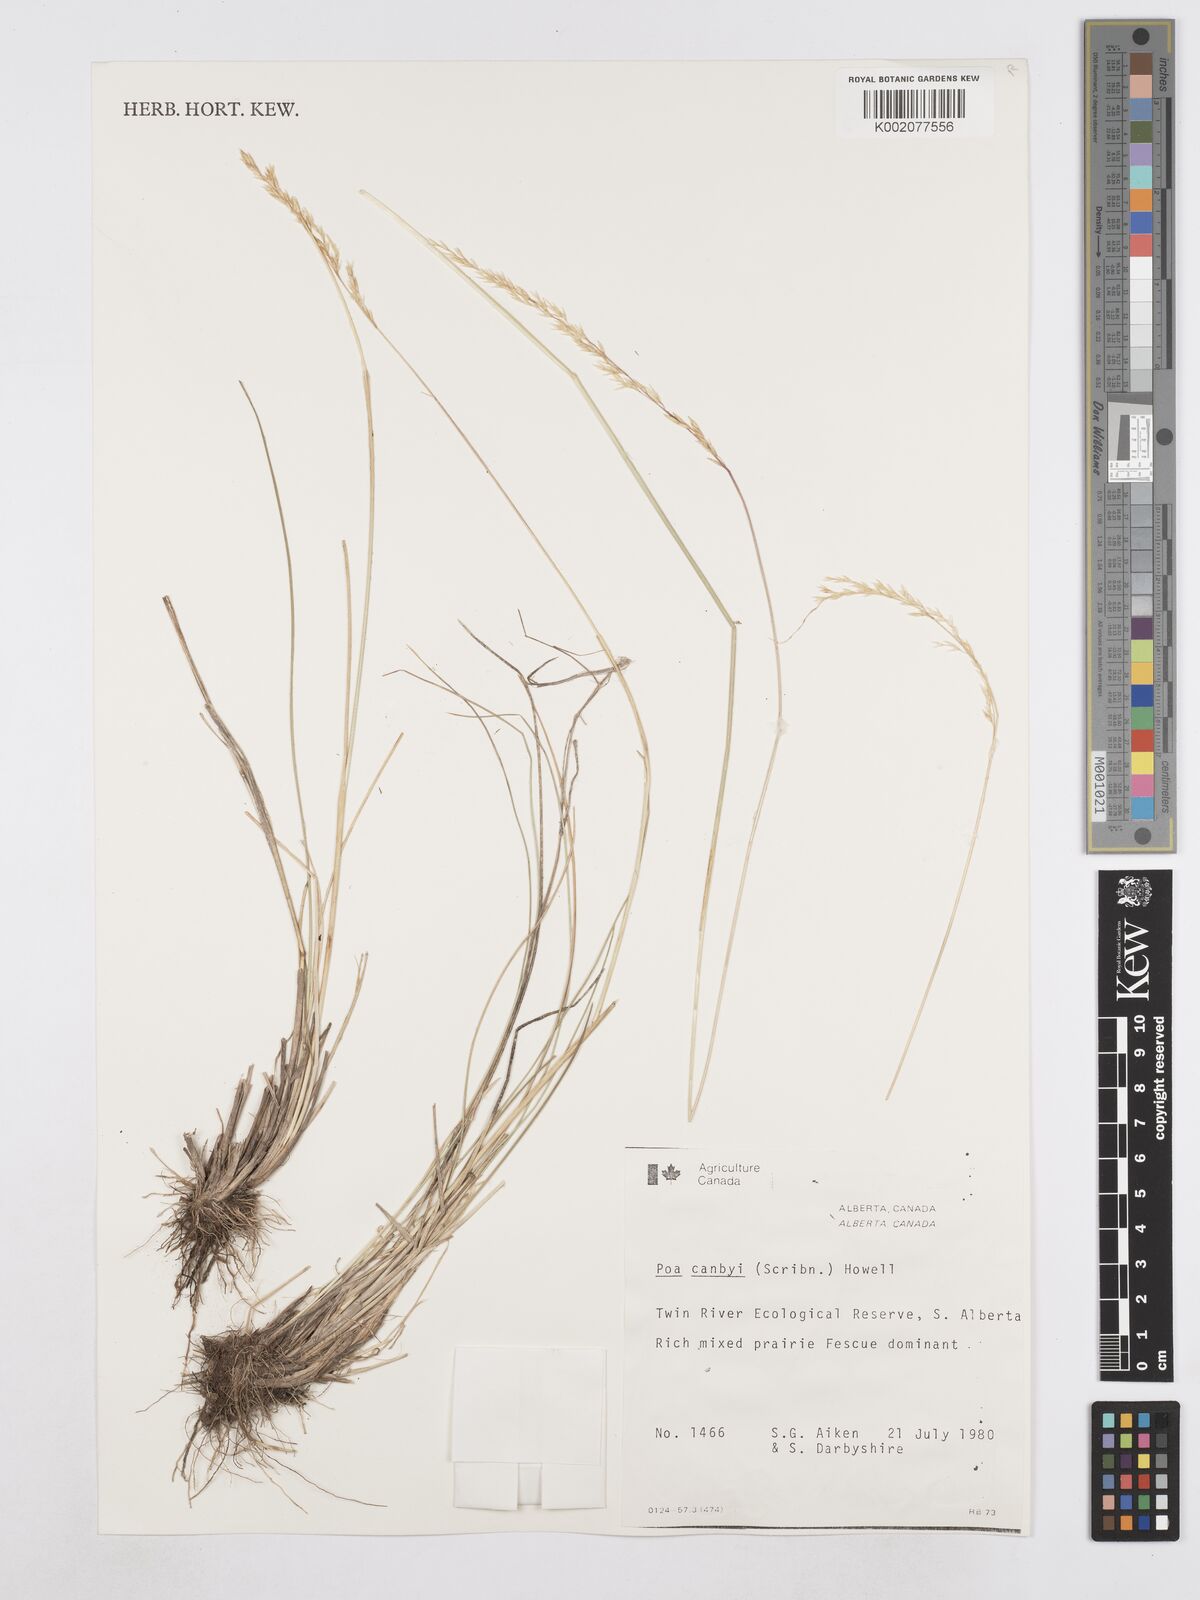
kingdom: Plantae
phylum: Tracheophyta
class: Liliopsida
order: Poales
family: Poaceae
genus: Poa
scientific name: Poa secunda
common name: Sandberg bluegrass
